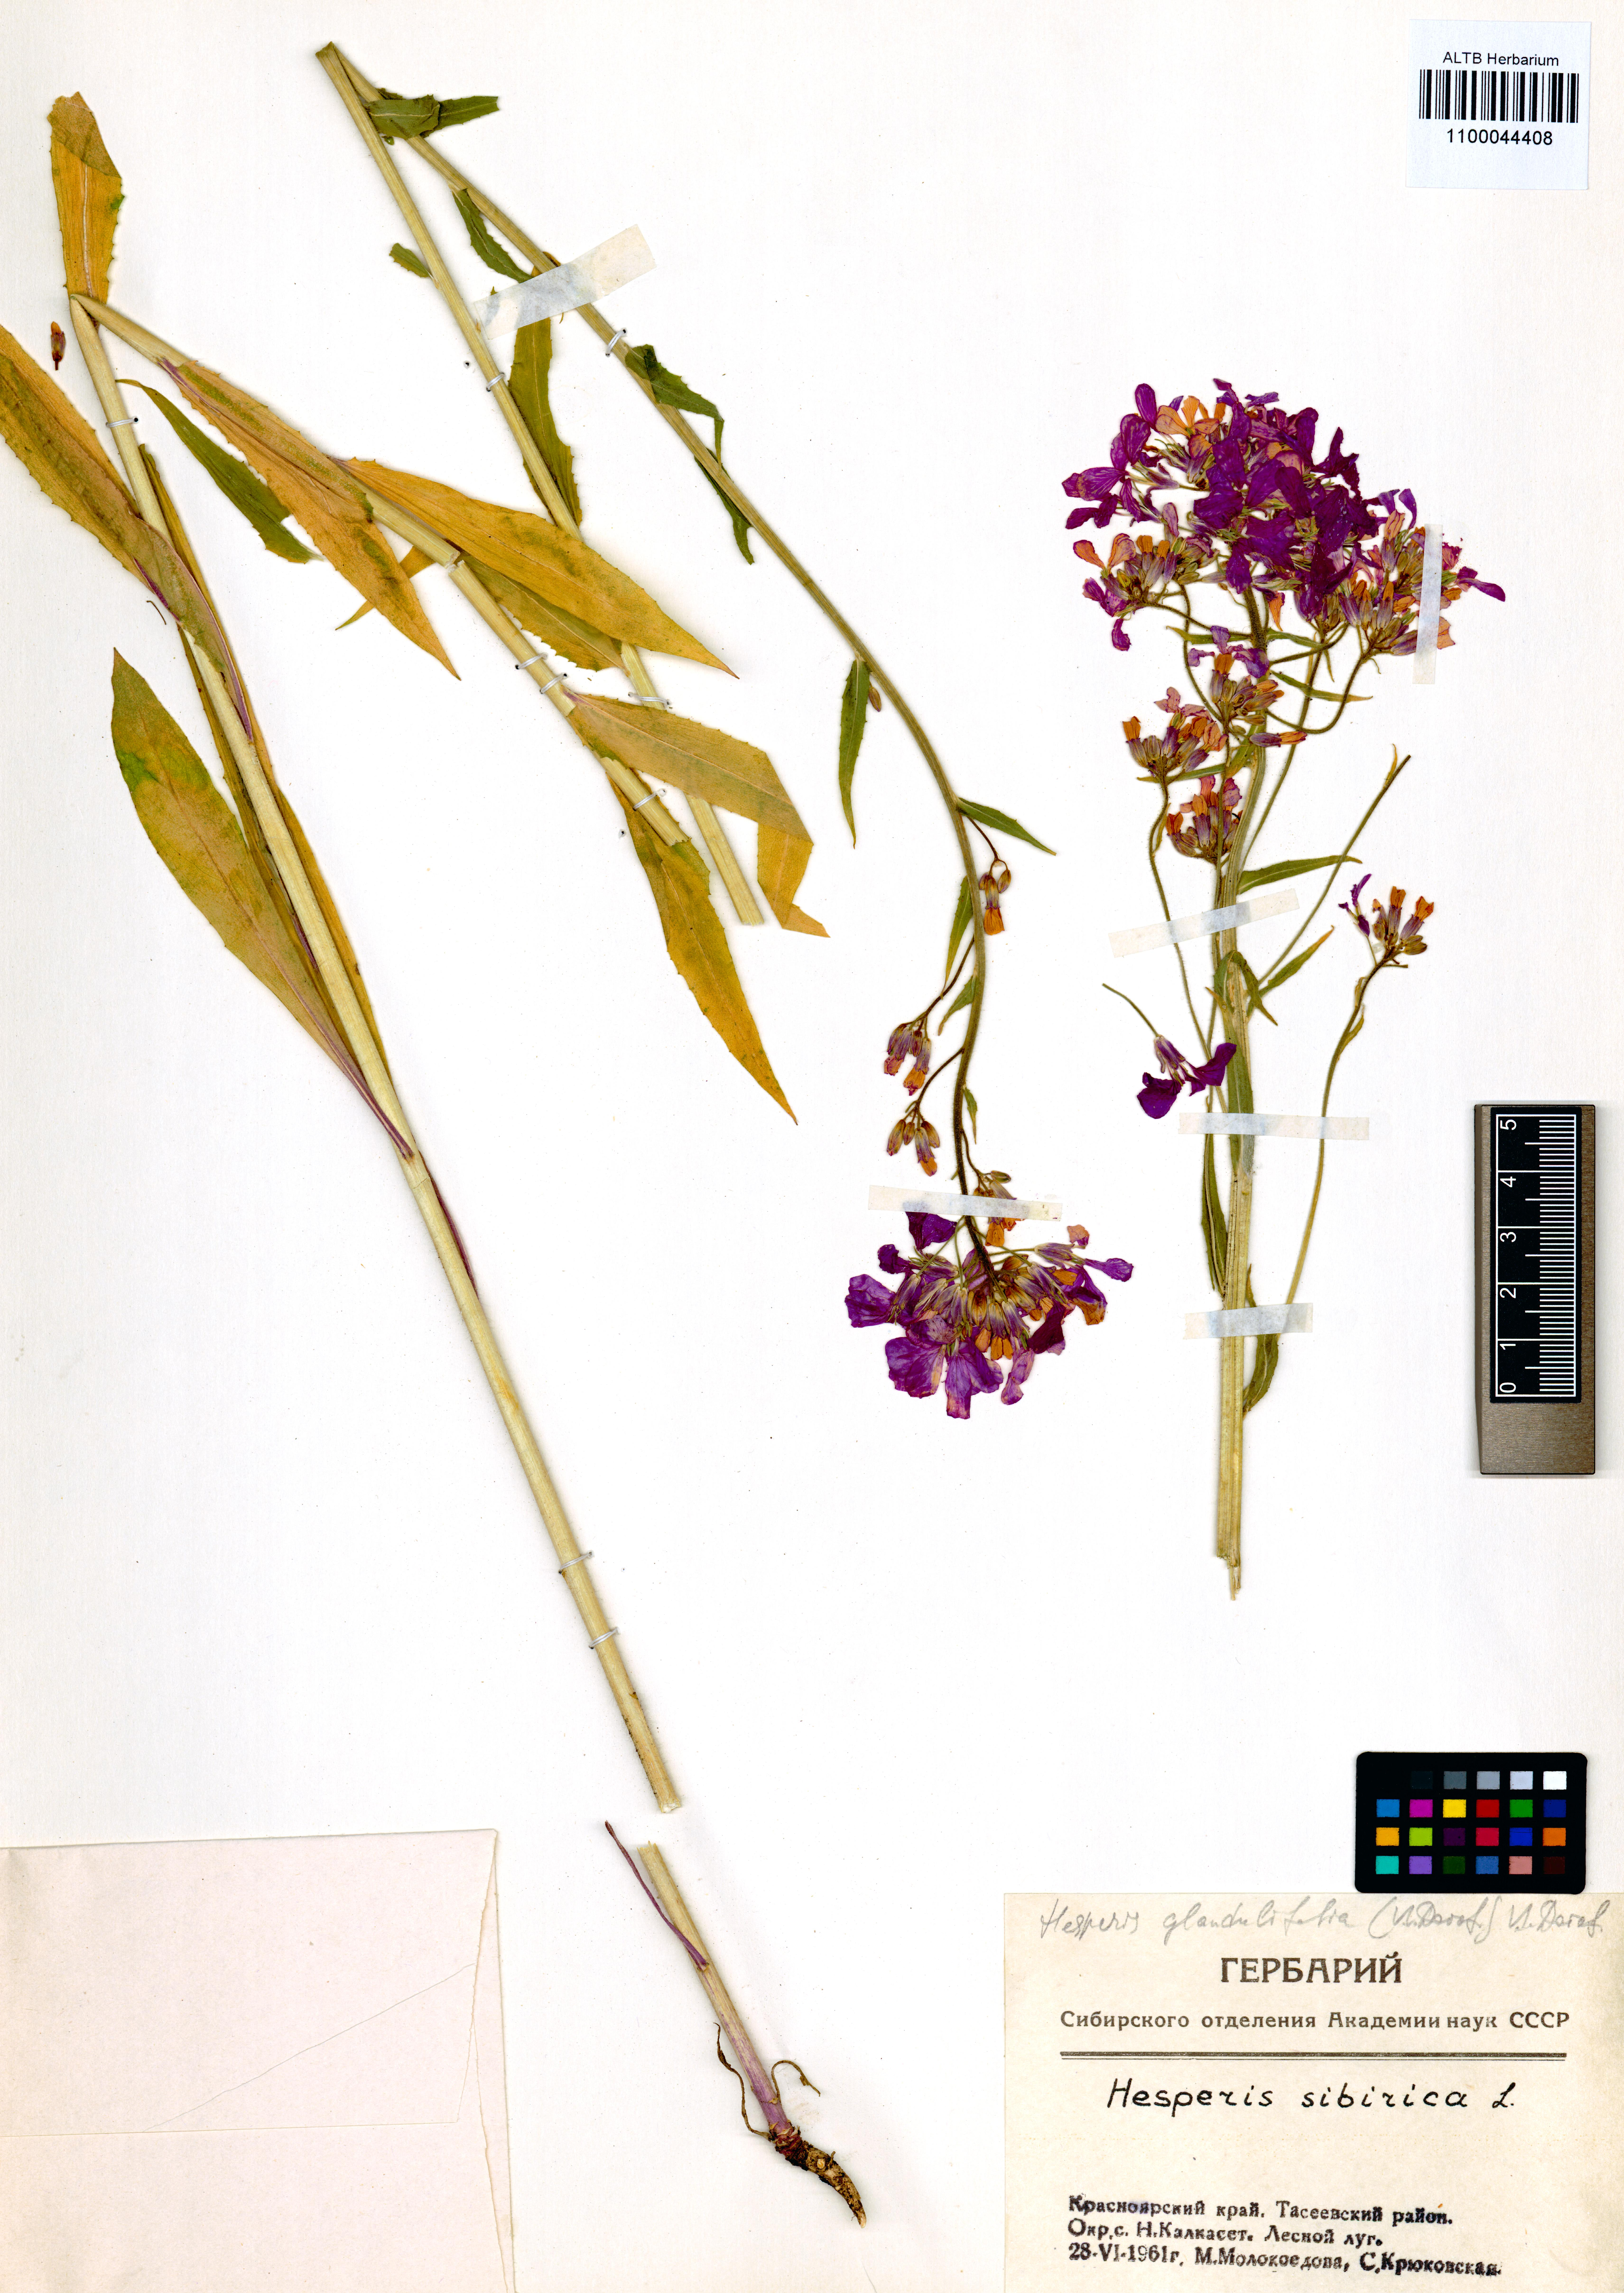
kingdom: Plantae
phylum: Tracheophyta
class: Magnoliopsida
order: Brassicales
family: Brassicaceae
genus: Hesperis
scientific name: Hesperis sibirica
